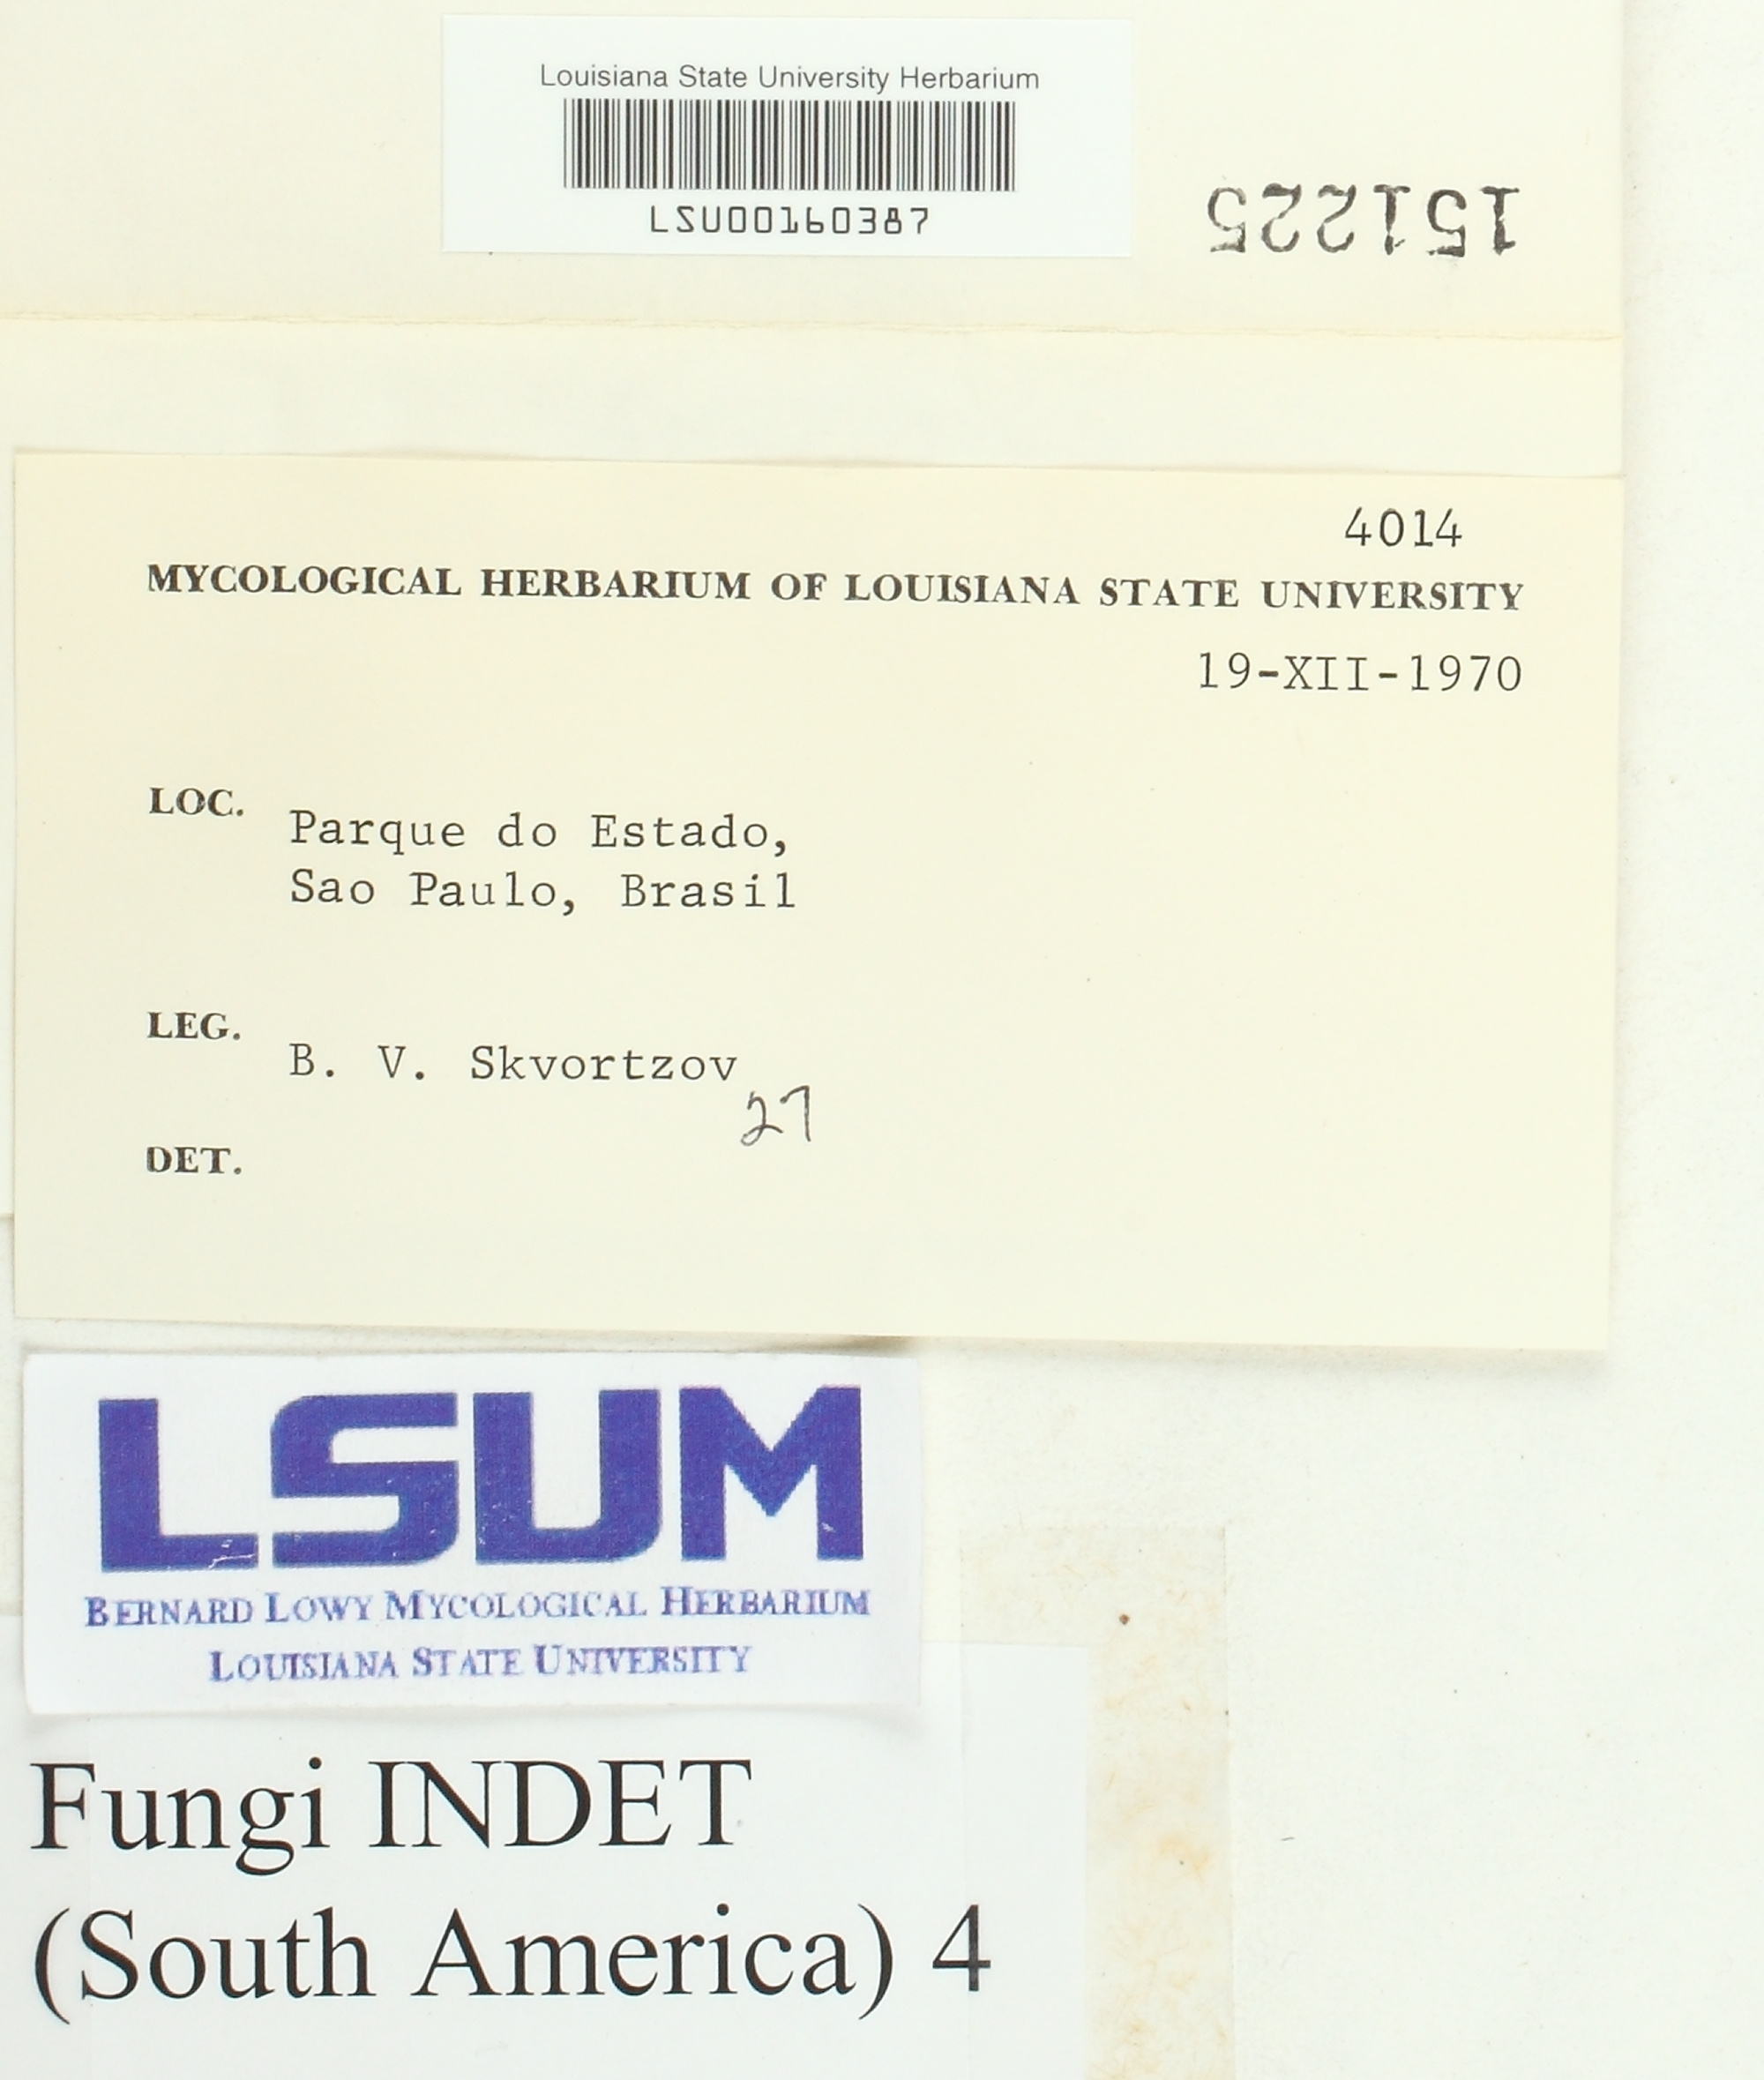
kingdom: Fungi
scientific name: Fungi
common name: Fungi
